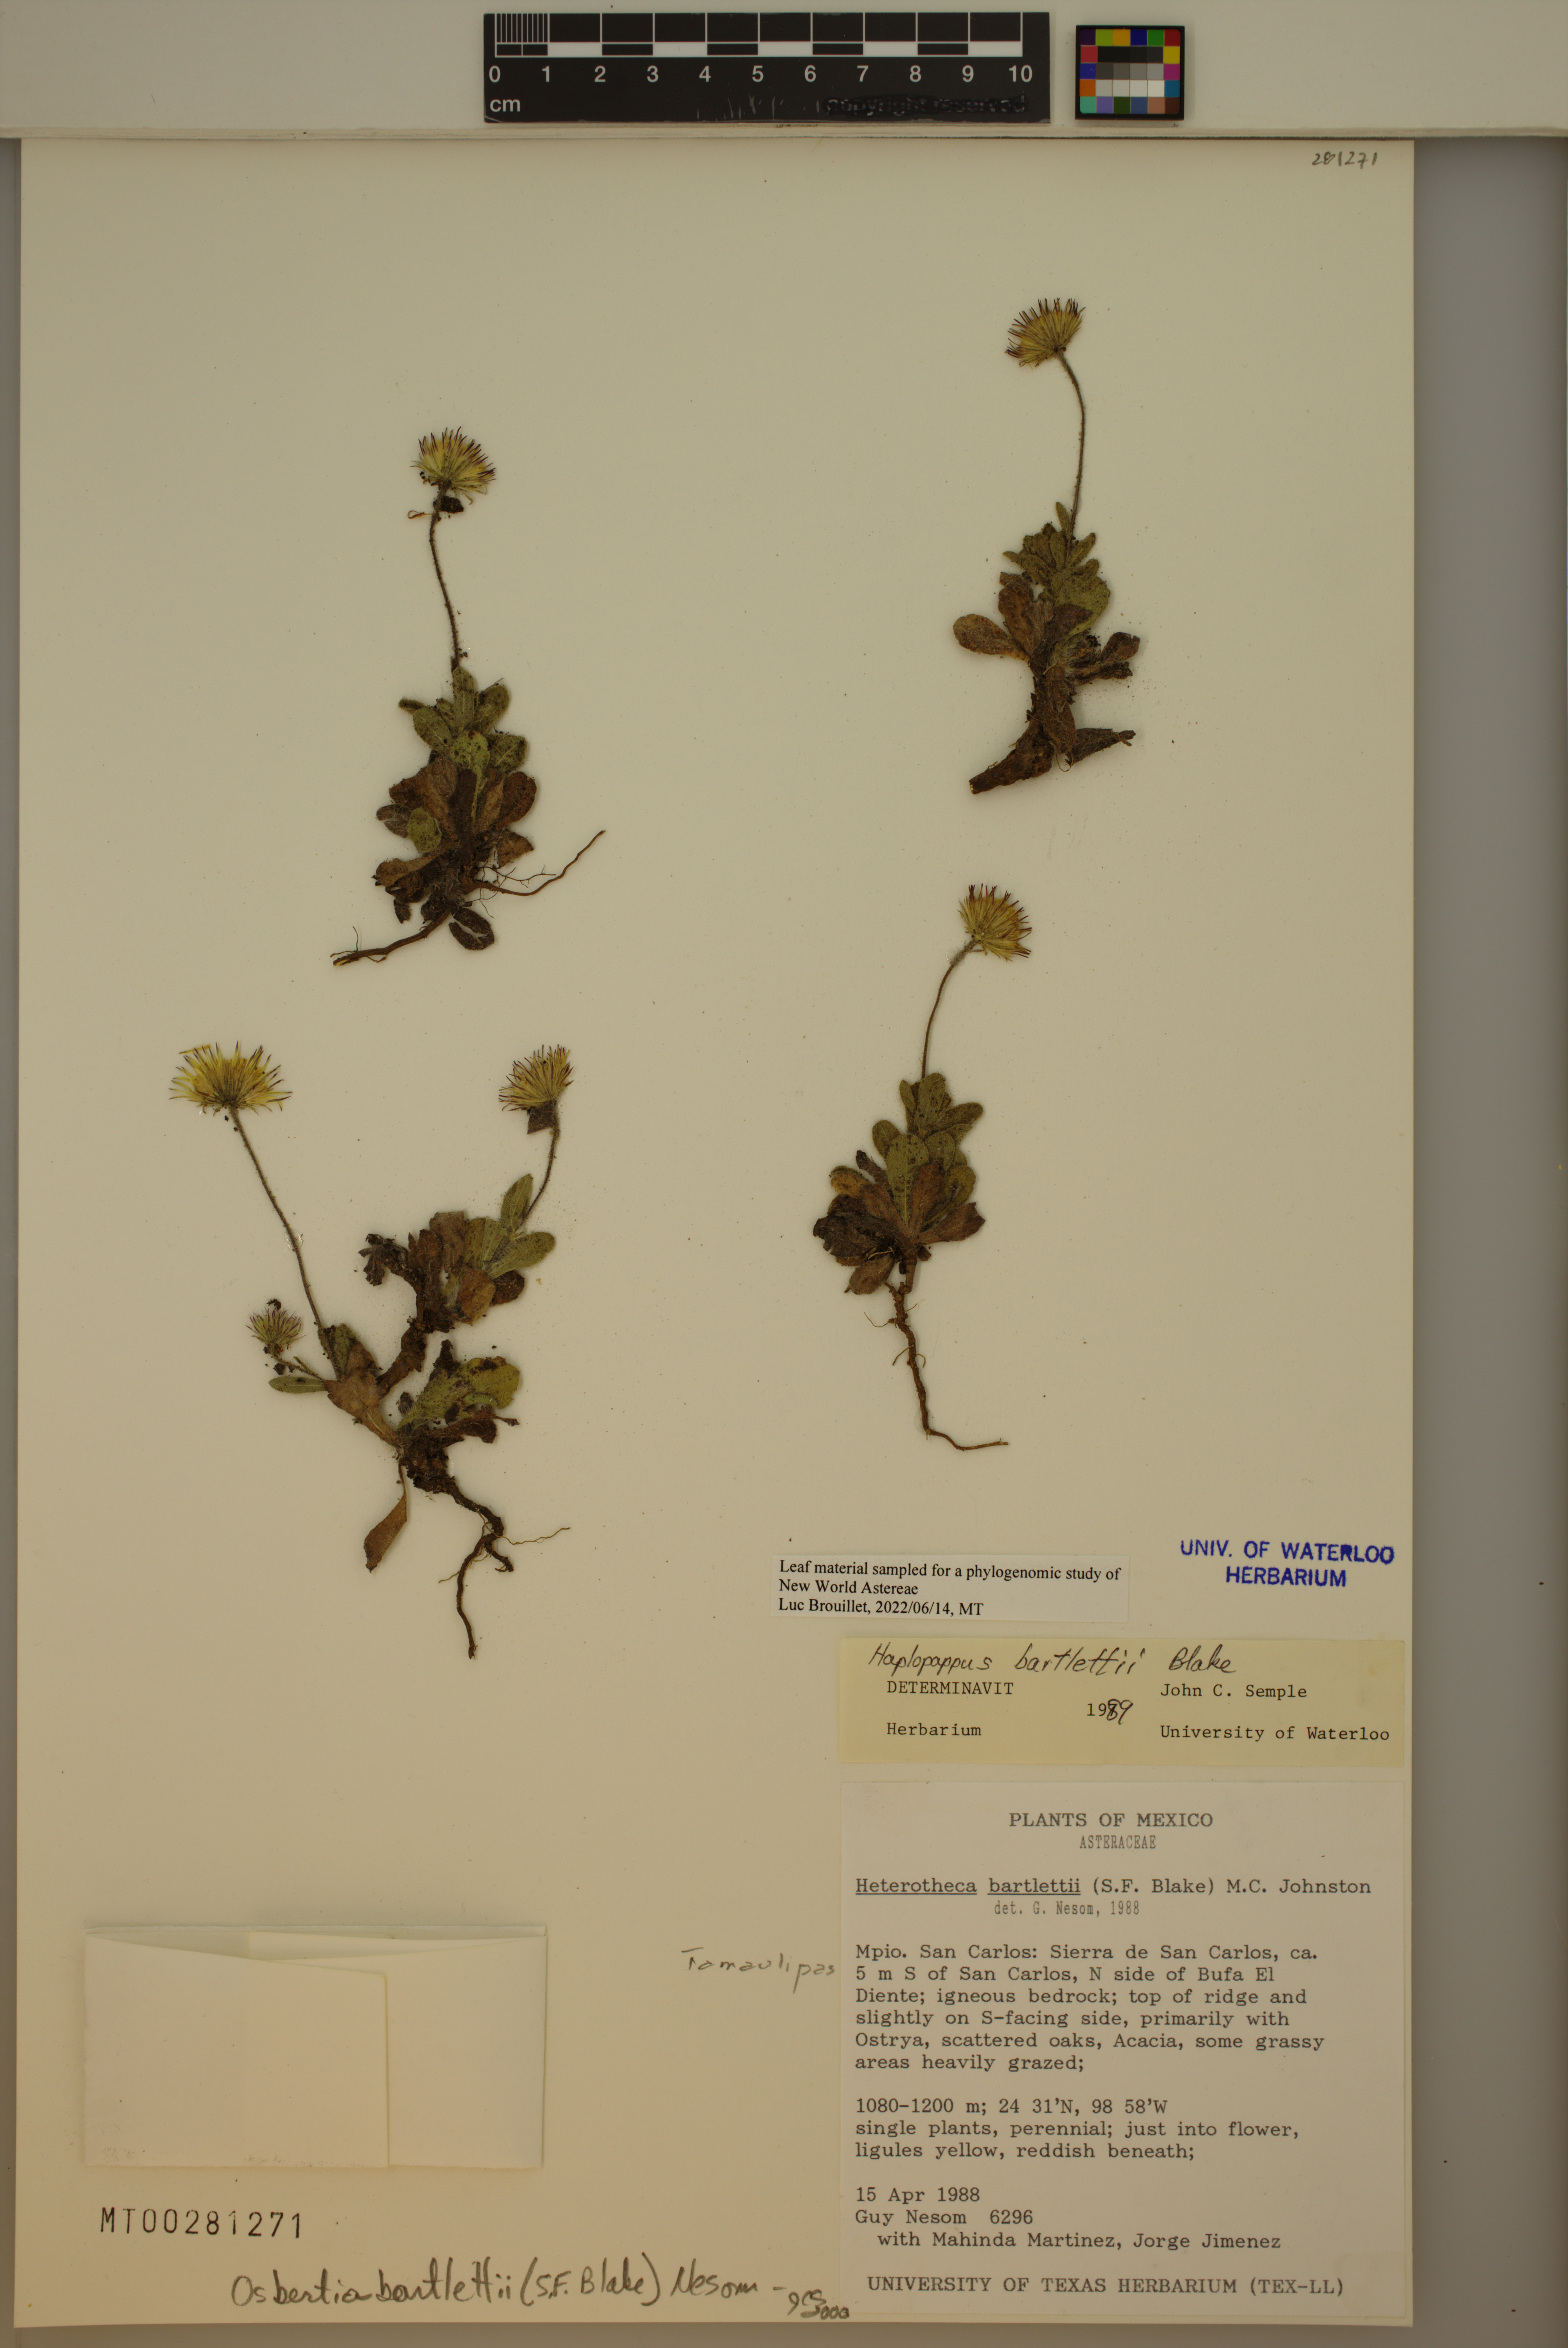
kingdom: Plantae
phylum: Tracheophyta
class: Magnoliopsida
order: Asterales
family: Asteraceae
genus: Osbertia
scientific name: Osbertia bartlettii
